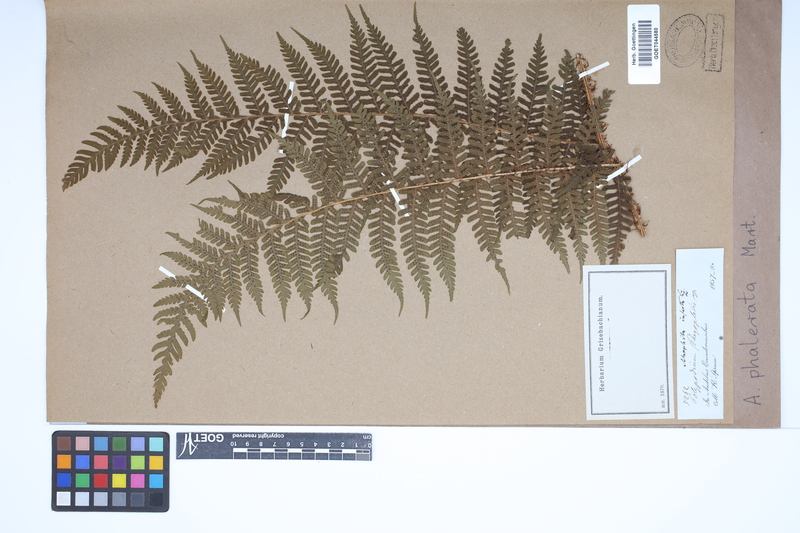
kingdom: Plantae
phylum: Tracheophyta
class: Polypodiopsida
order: Cyatheales
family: Cyatheaceae
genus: Cyathea
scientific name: Cyathea phalerata
